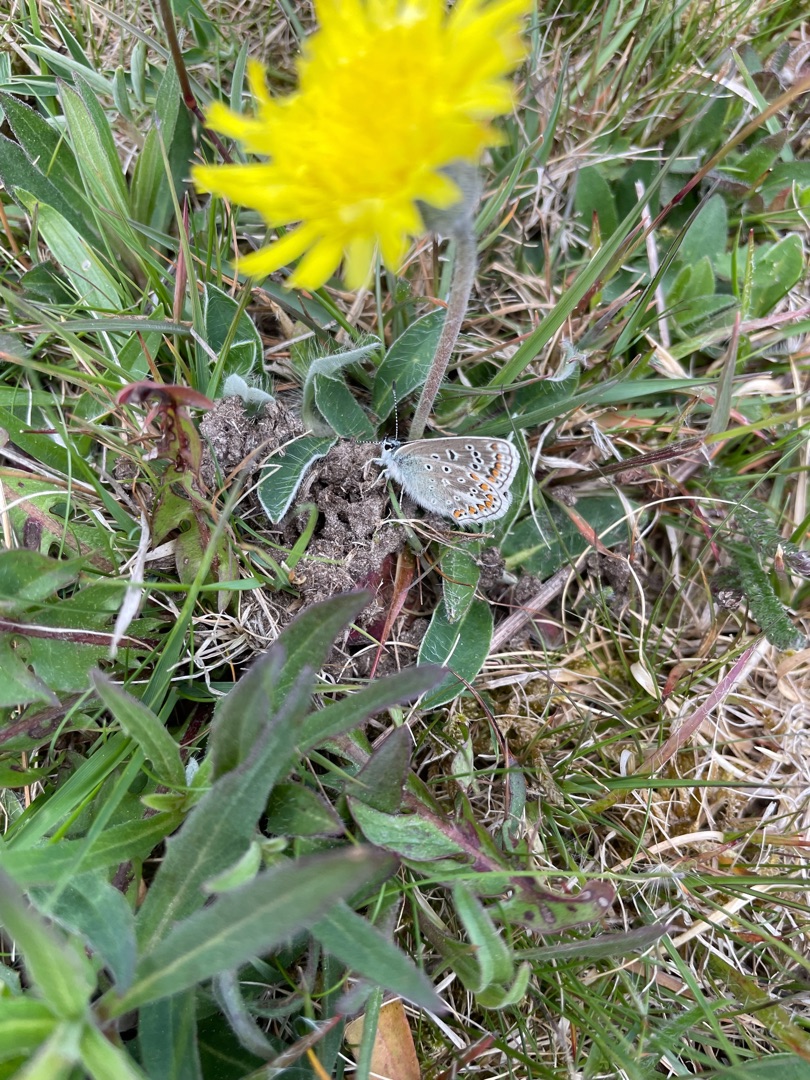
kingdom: Animalia
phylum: Arthropoda
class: Insecta
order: Lepidoptera
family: Lycaenidae
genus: Polyommatus
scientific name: Polyommatus icarus
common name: Almindelig blåfugl
